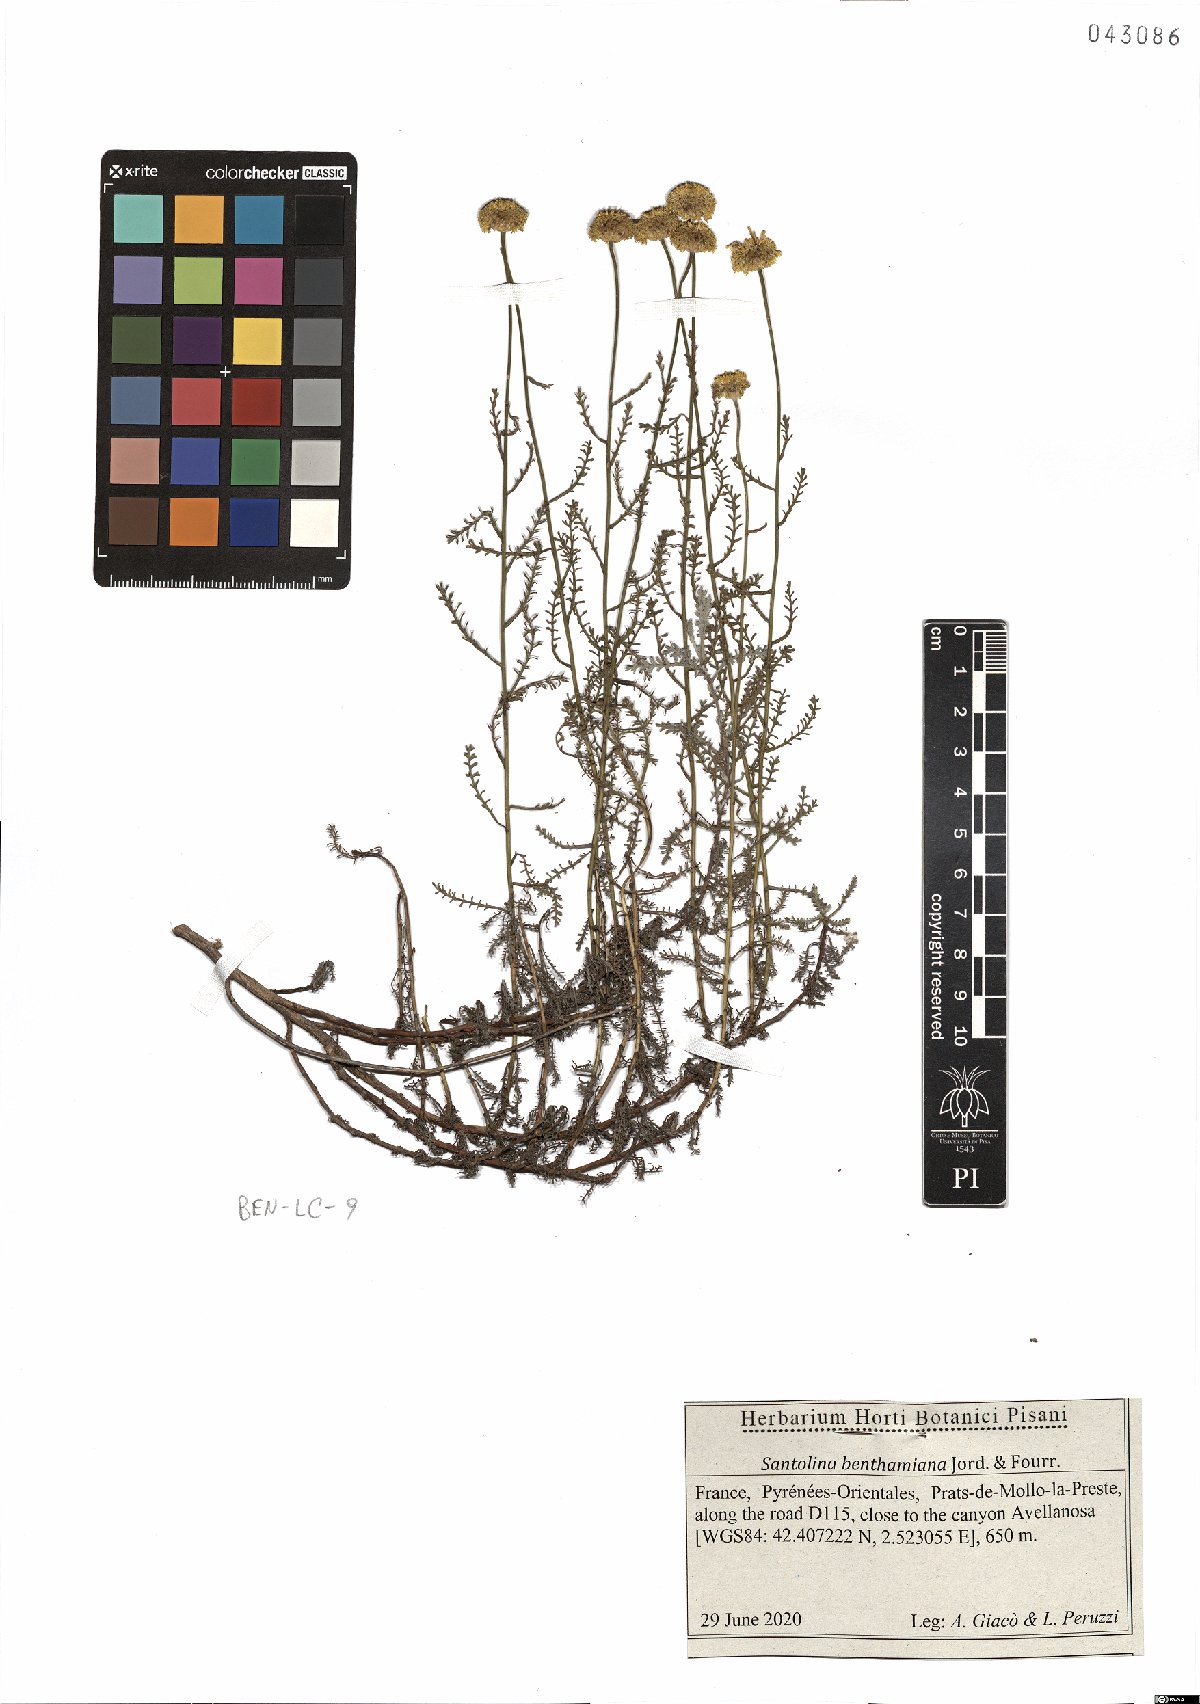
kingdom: Plantae
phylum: Tracheophyta
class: Magnoliopsida
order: Asterales
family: Asteraceae
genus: Santolina
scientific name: Santolina benthamiana
